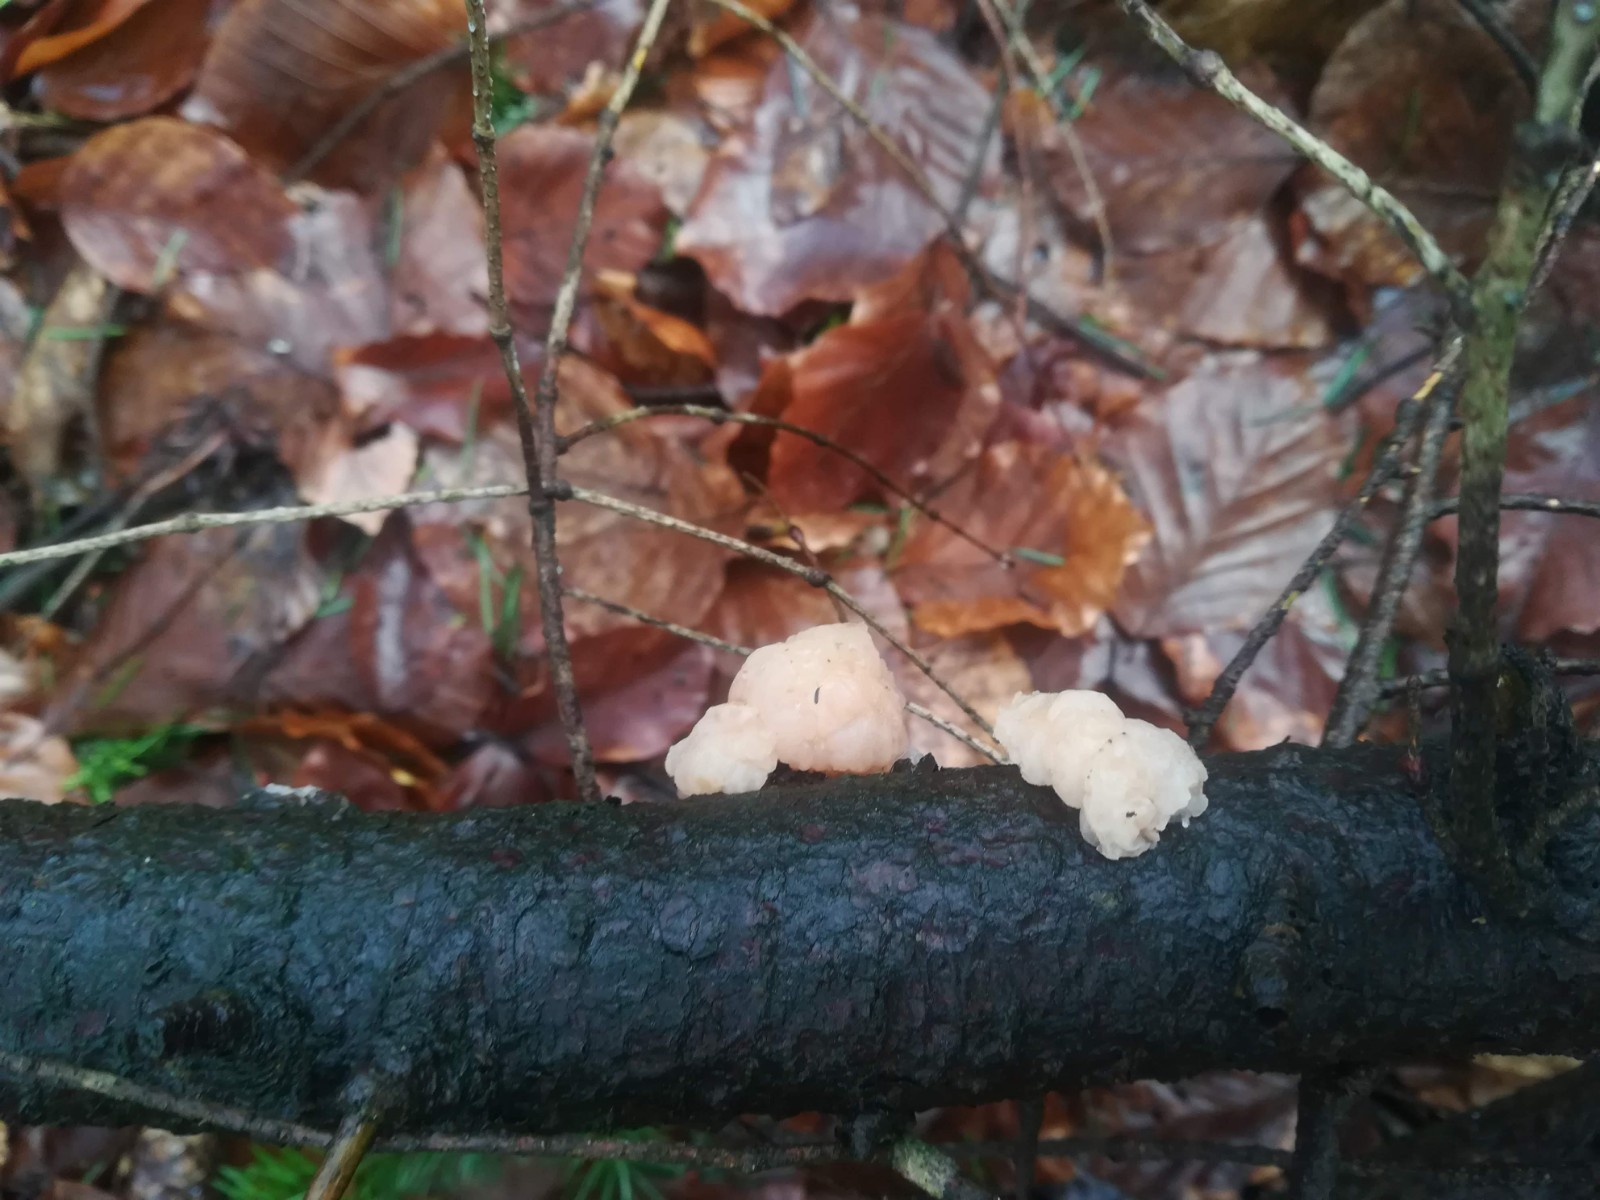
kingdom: Fungi
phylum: Basidiomycota
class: Tremellomycetes
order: Tremellales
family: Naemateliaceae
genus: Naematelia
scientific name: Naematelia encephala
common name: fyrre-bævresvamp
